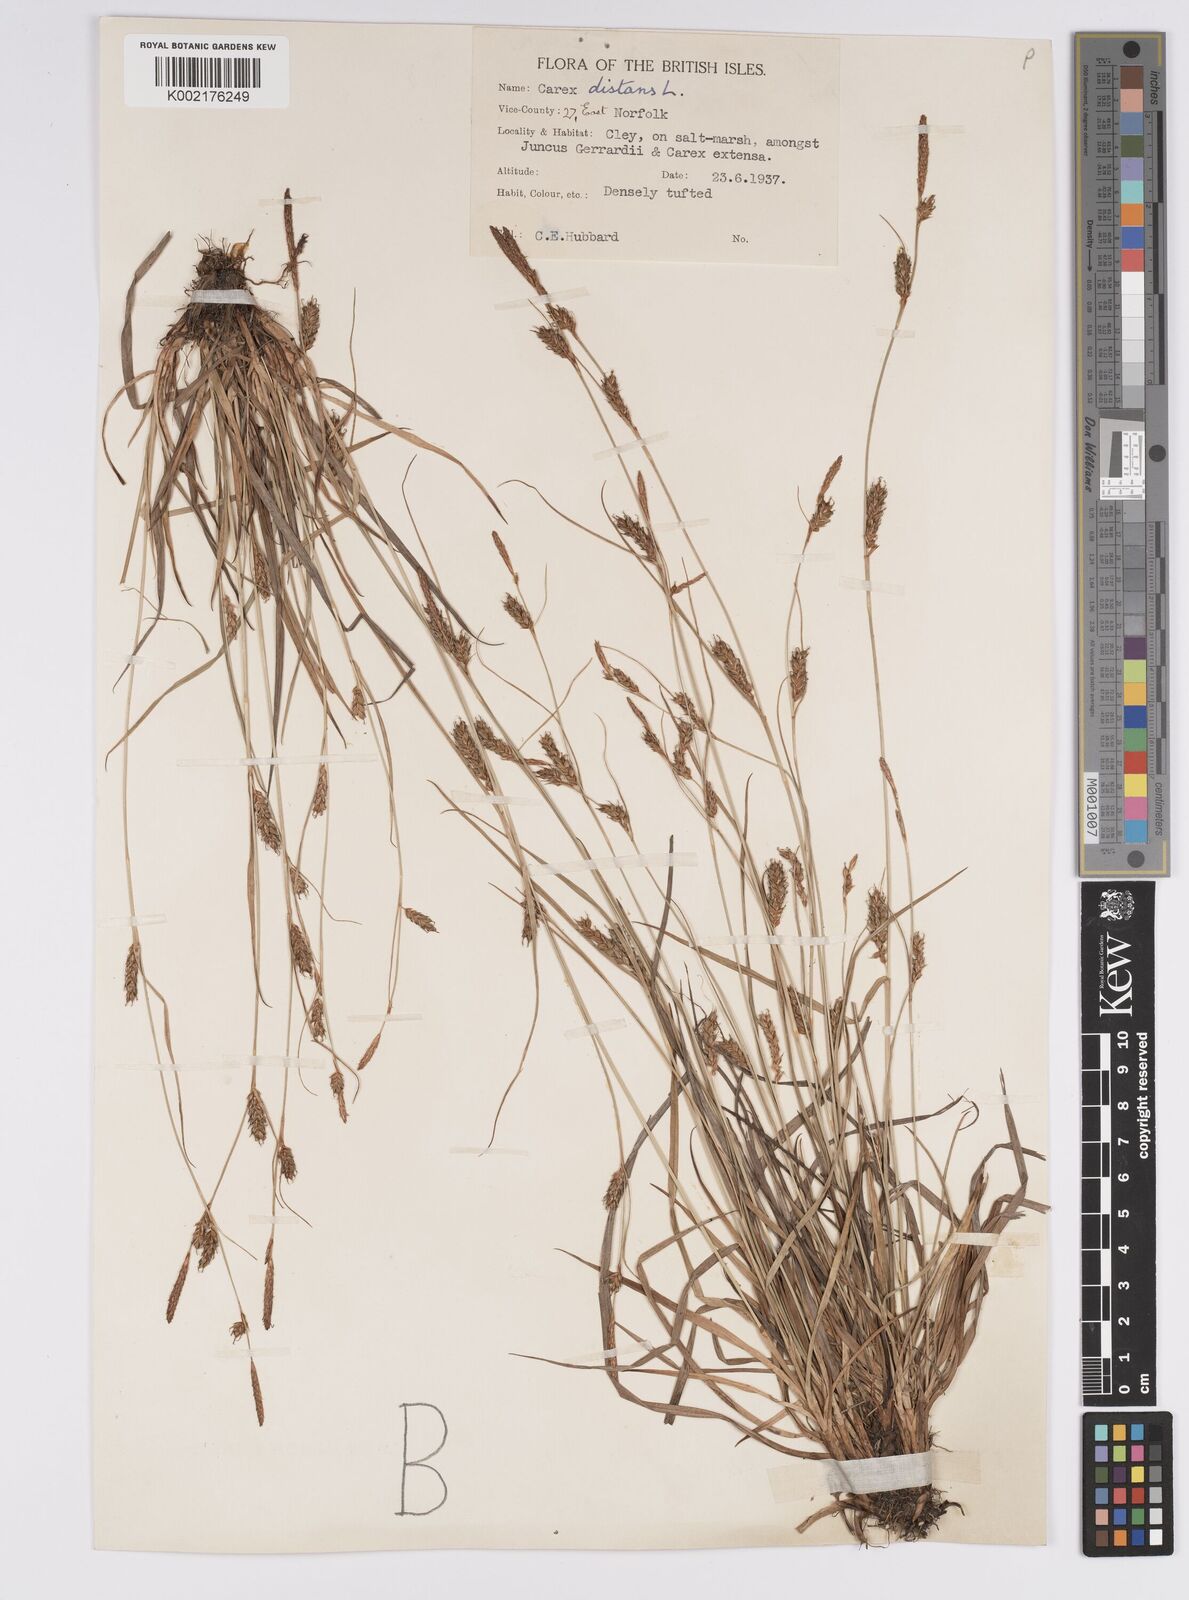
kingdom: Plantae
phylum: Tracheophyta
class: Liliopsida
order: Poales
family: Cyperaceae
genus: Carex
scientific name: Carex distans
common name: Distant sedge
